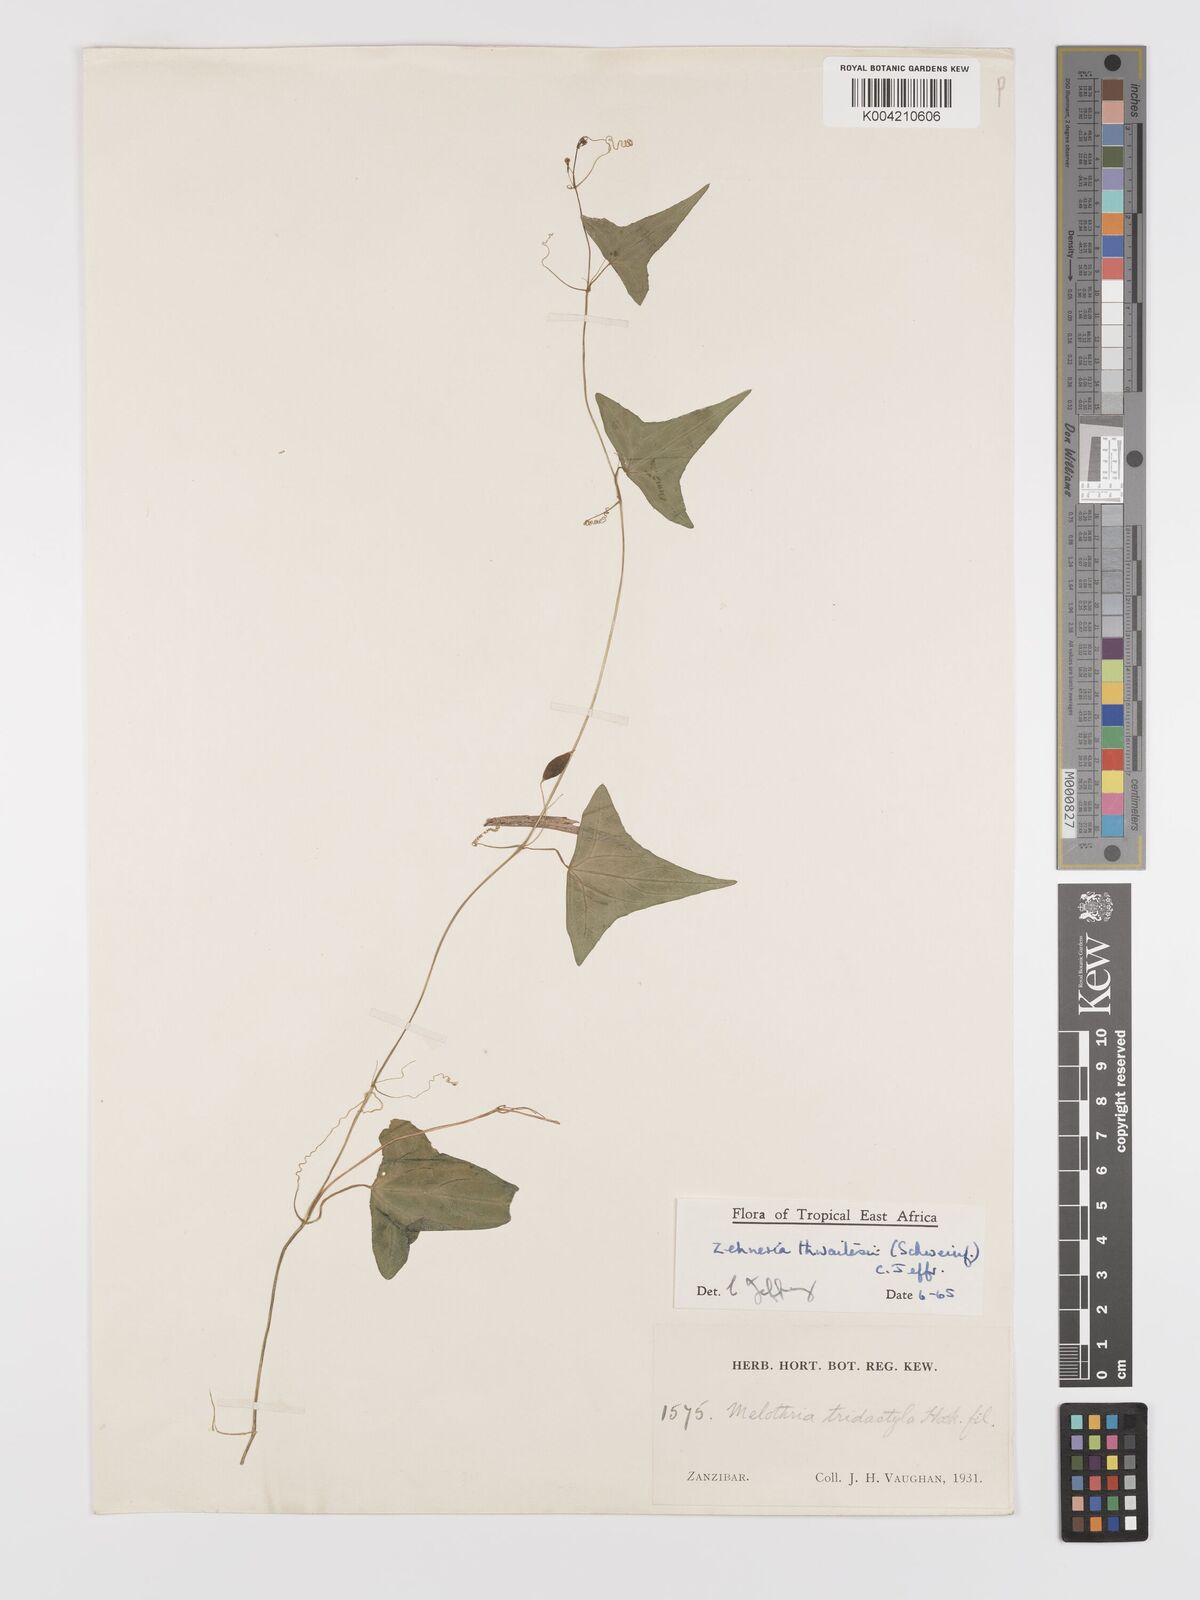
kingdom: Plantae
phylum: Tracheophyta
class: Magnoliopsida
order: Cucurbitales
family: Cucurbitaceae
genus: Zehneria
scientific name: Zehneria thwaitesii
